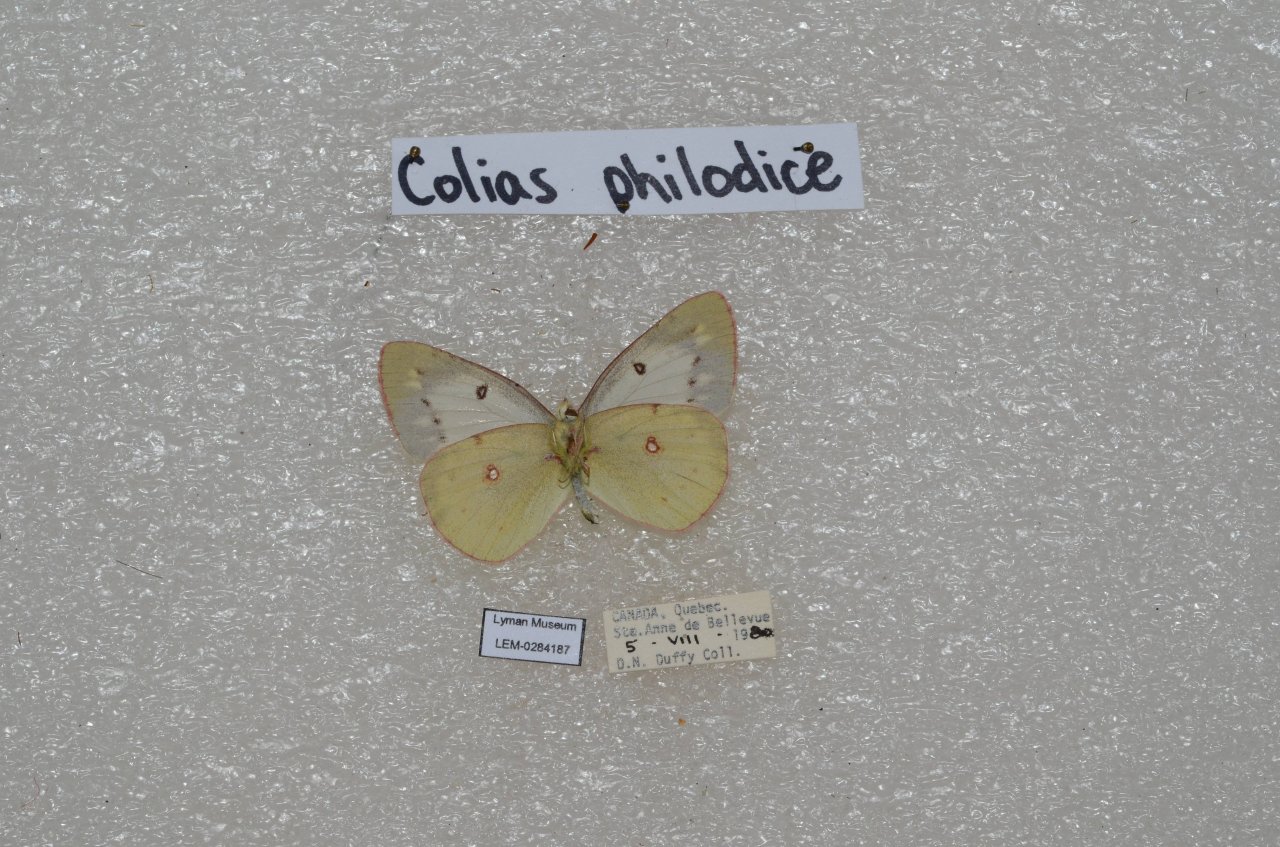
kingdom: Animalia
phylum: Arthropoda
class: Insecta
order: Lepidoptera
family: Pieridae
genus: Colias
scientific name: Colias philodice
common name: Clouded Sulphur
